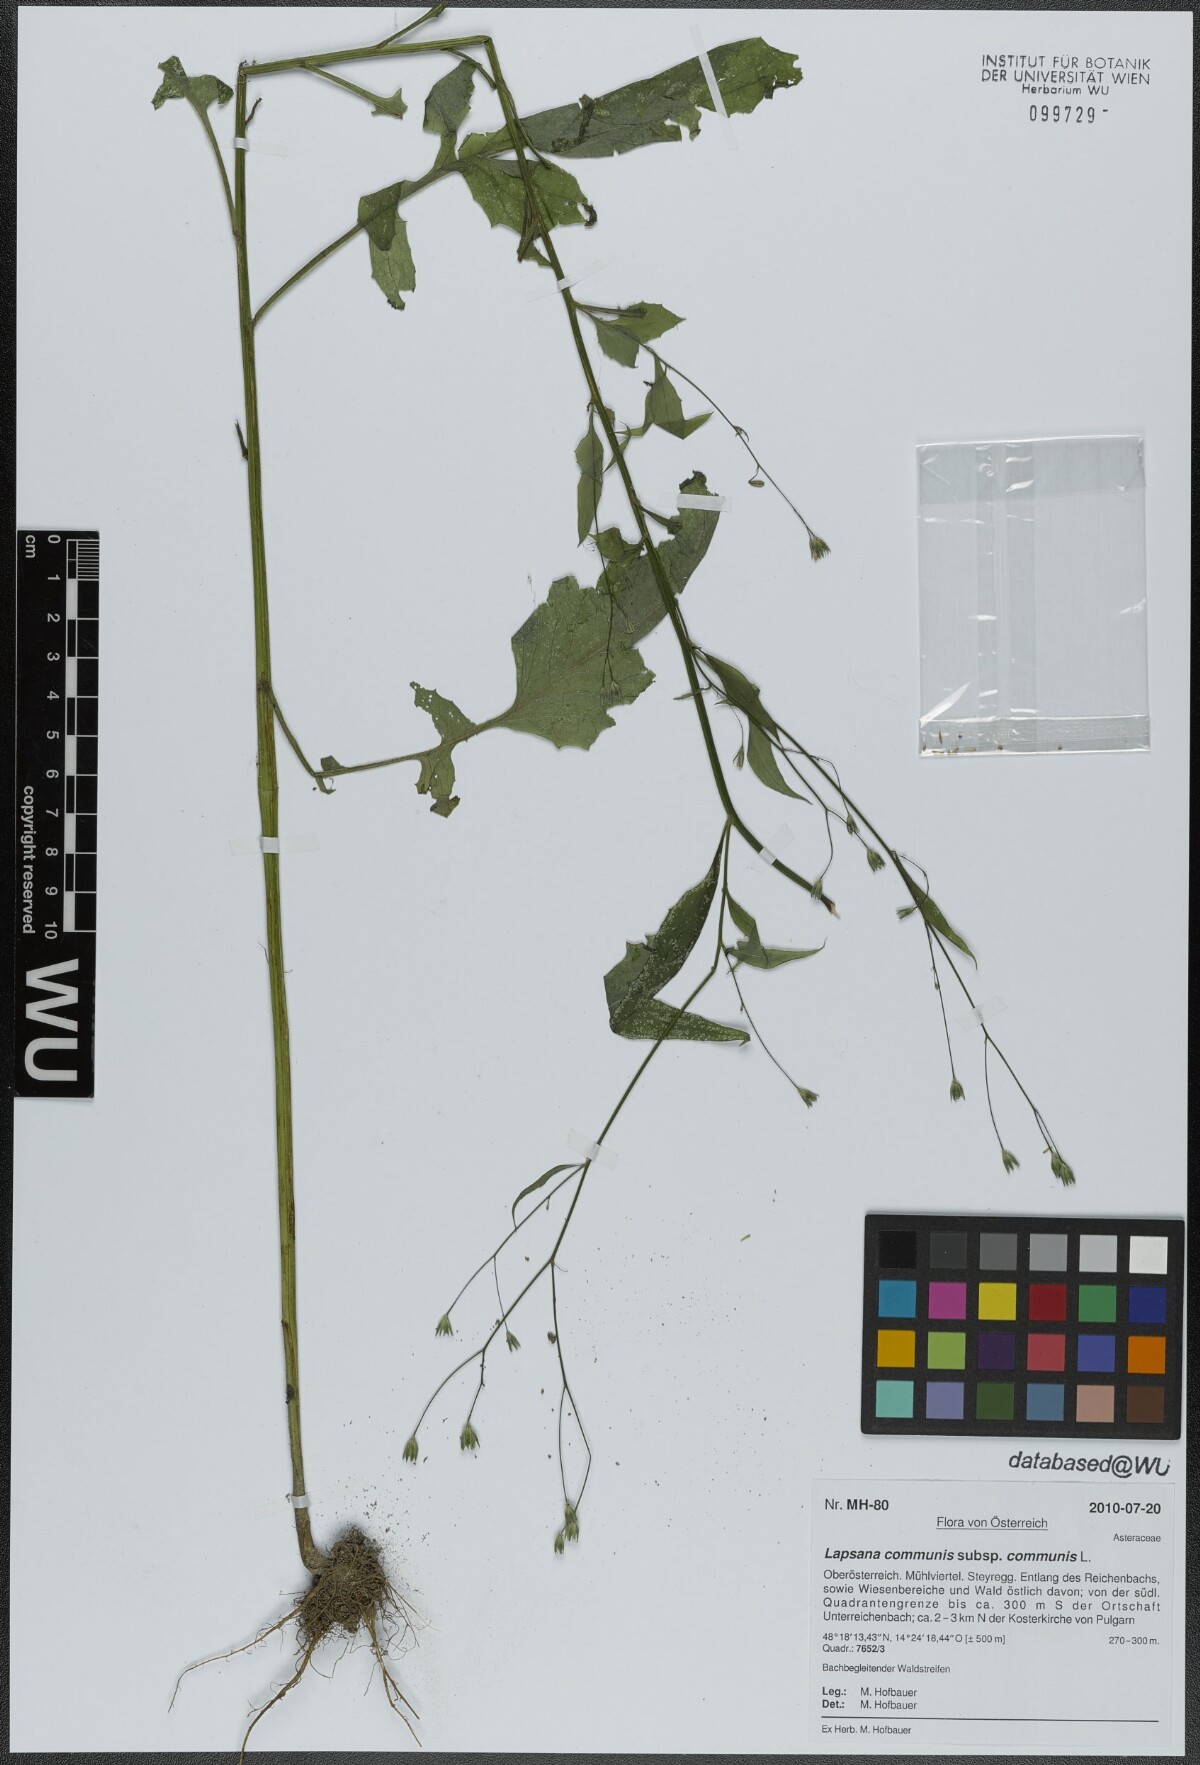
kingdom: Plantae
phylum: Tracheophyta
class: Magnoliopsida
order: Asterales
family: Asteraceae
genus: Lapsana
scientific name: Lapsana communis
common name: Nipplewort
